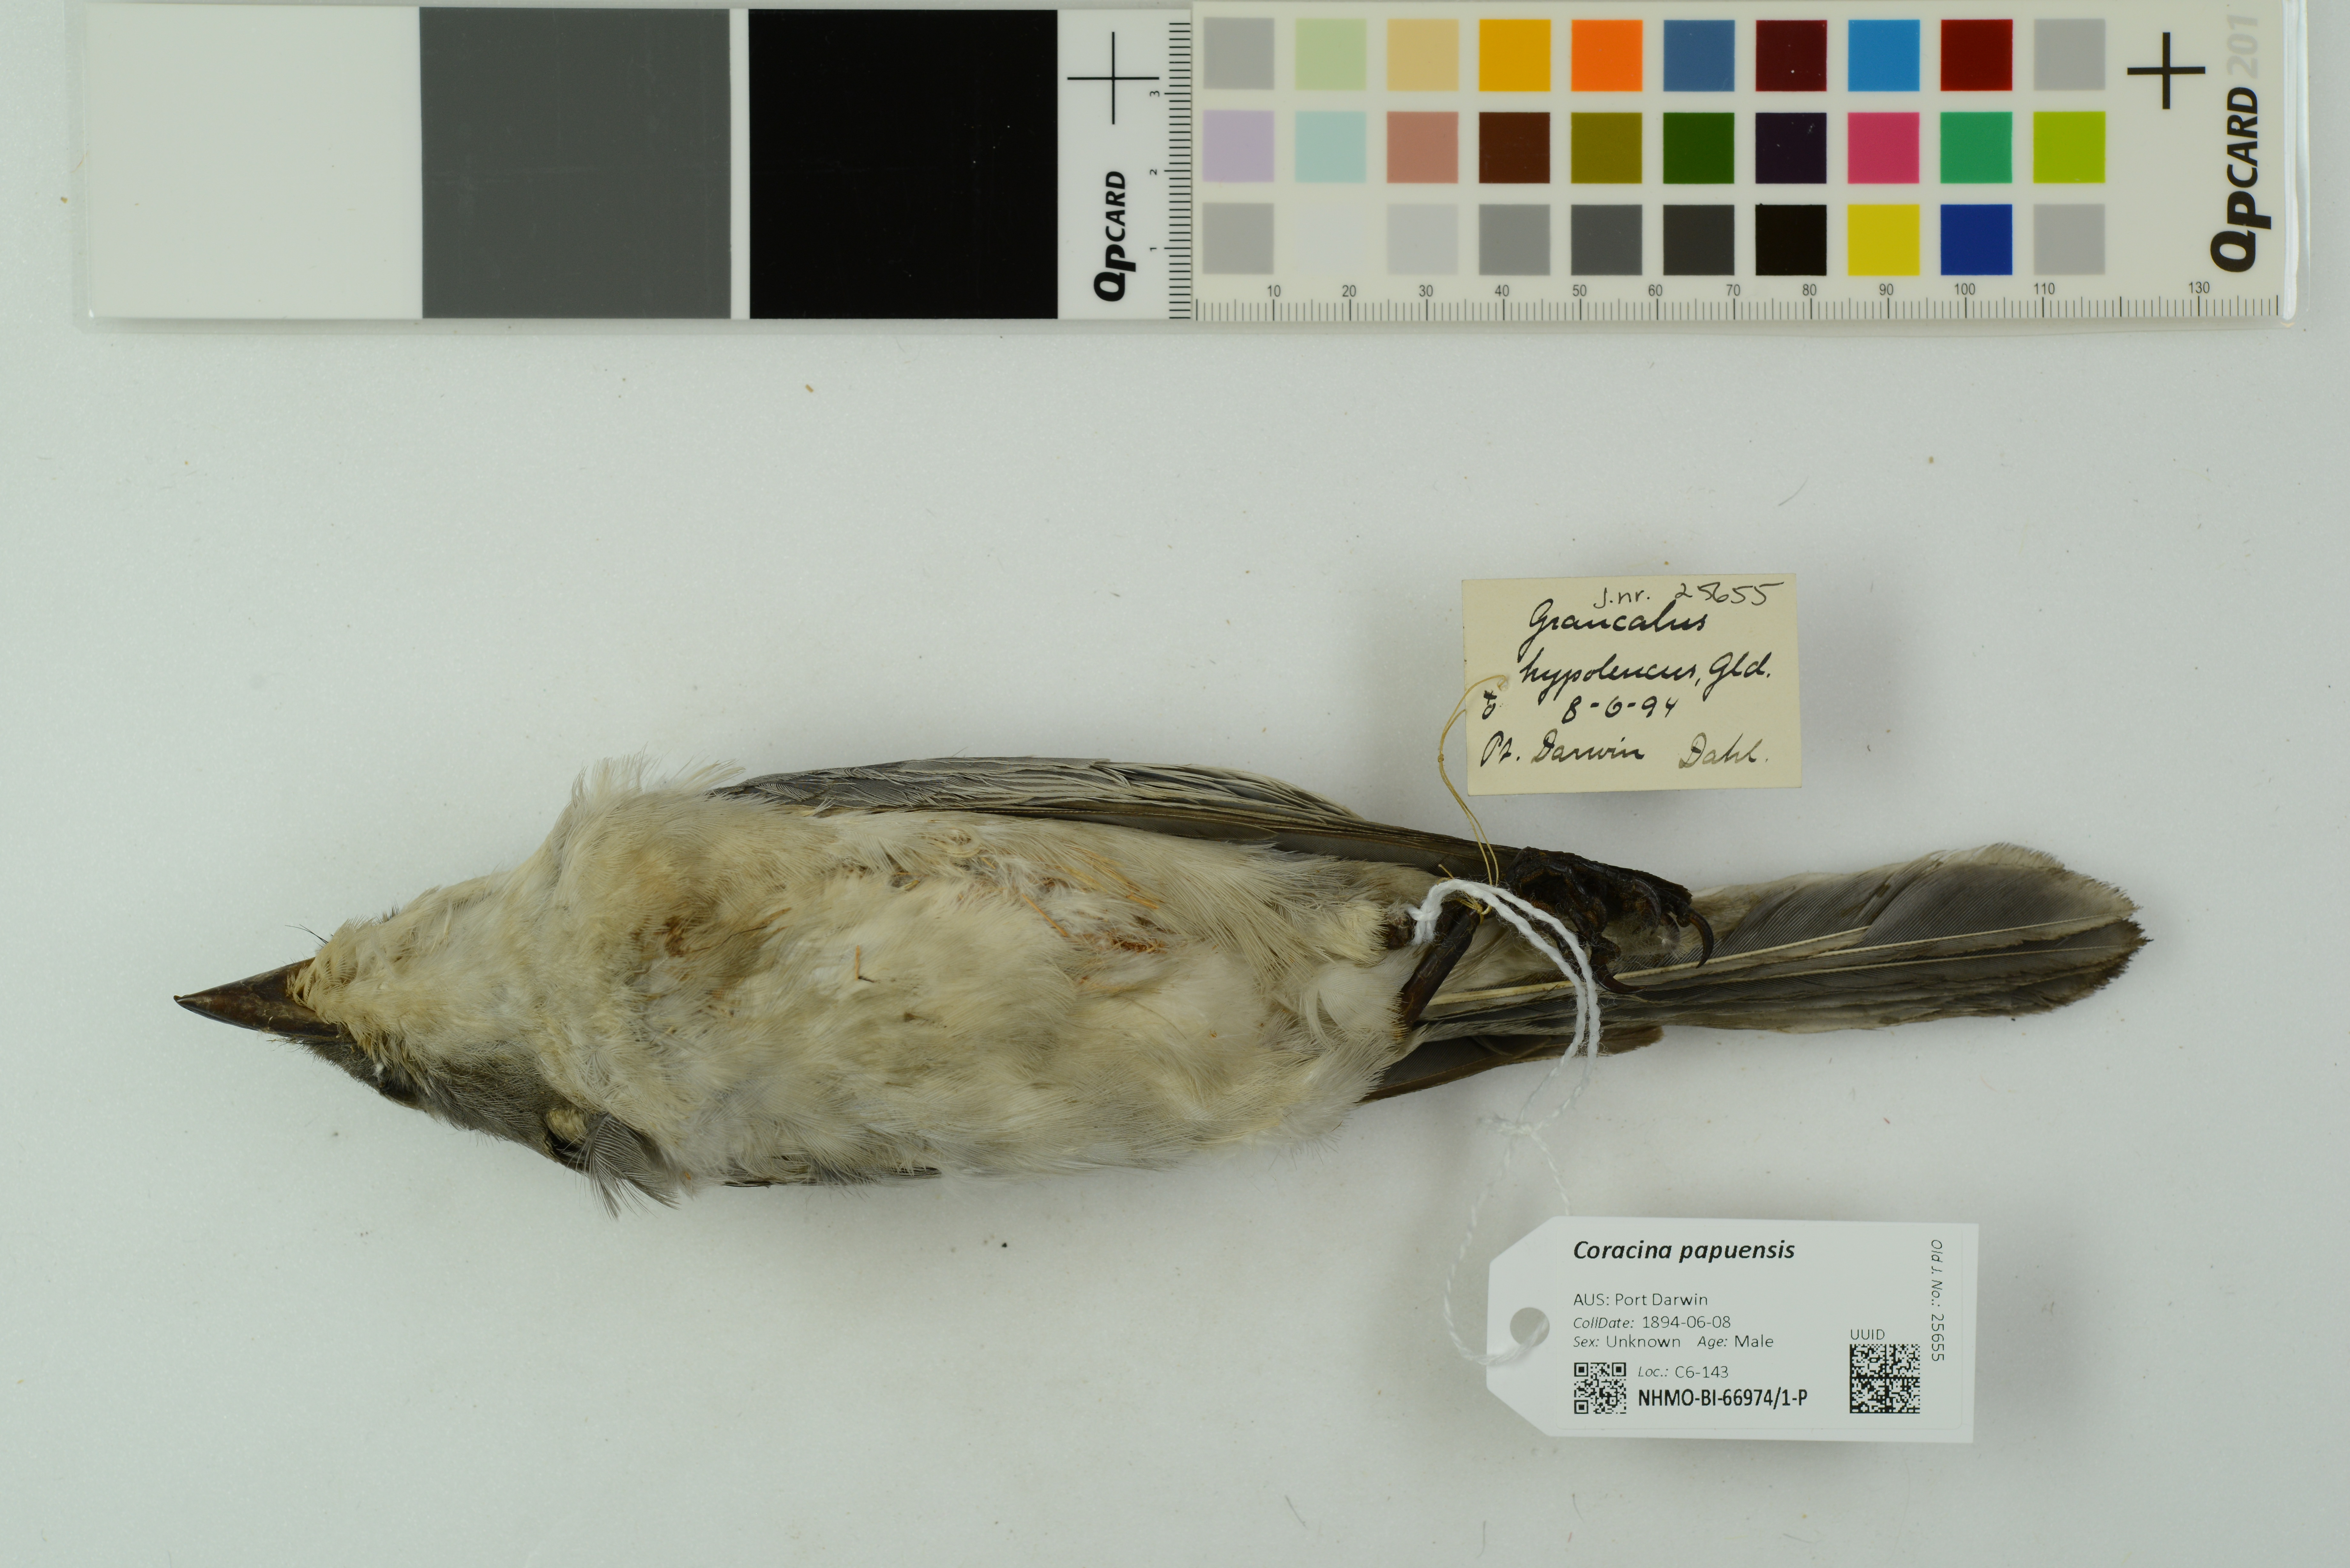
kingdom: Animalia
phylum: Chordata
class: Aves
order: Passeriformes
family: Campephagidae
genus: Coracina
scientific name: Coracina papuensis
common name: White-bellied cuckooshrike
